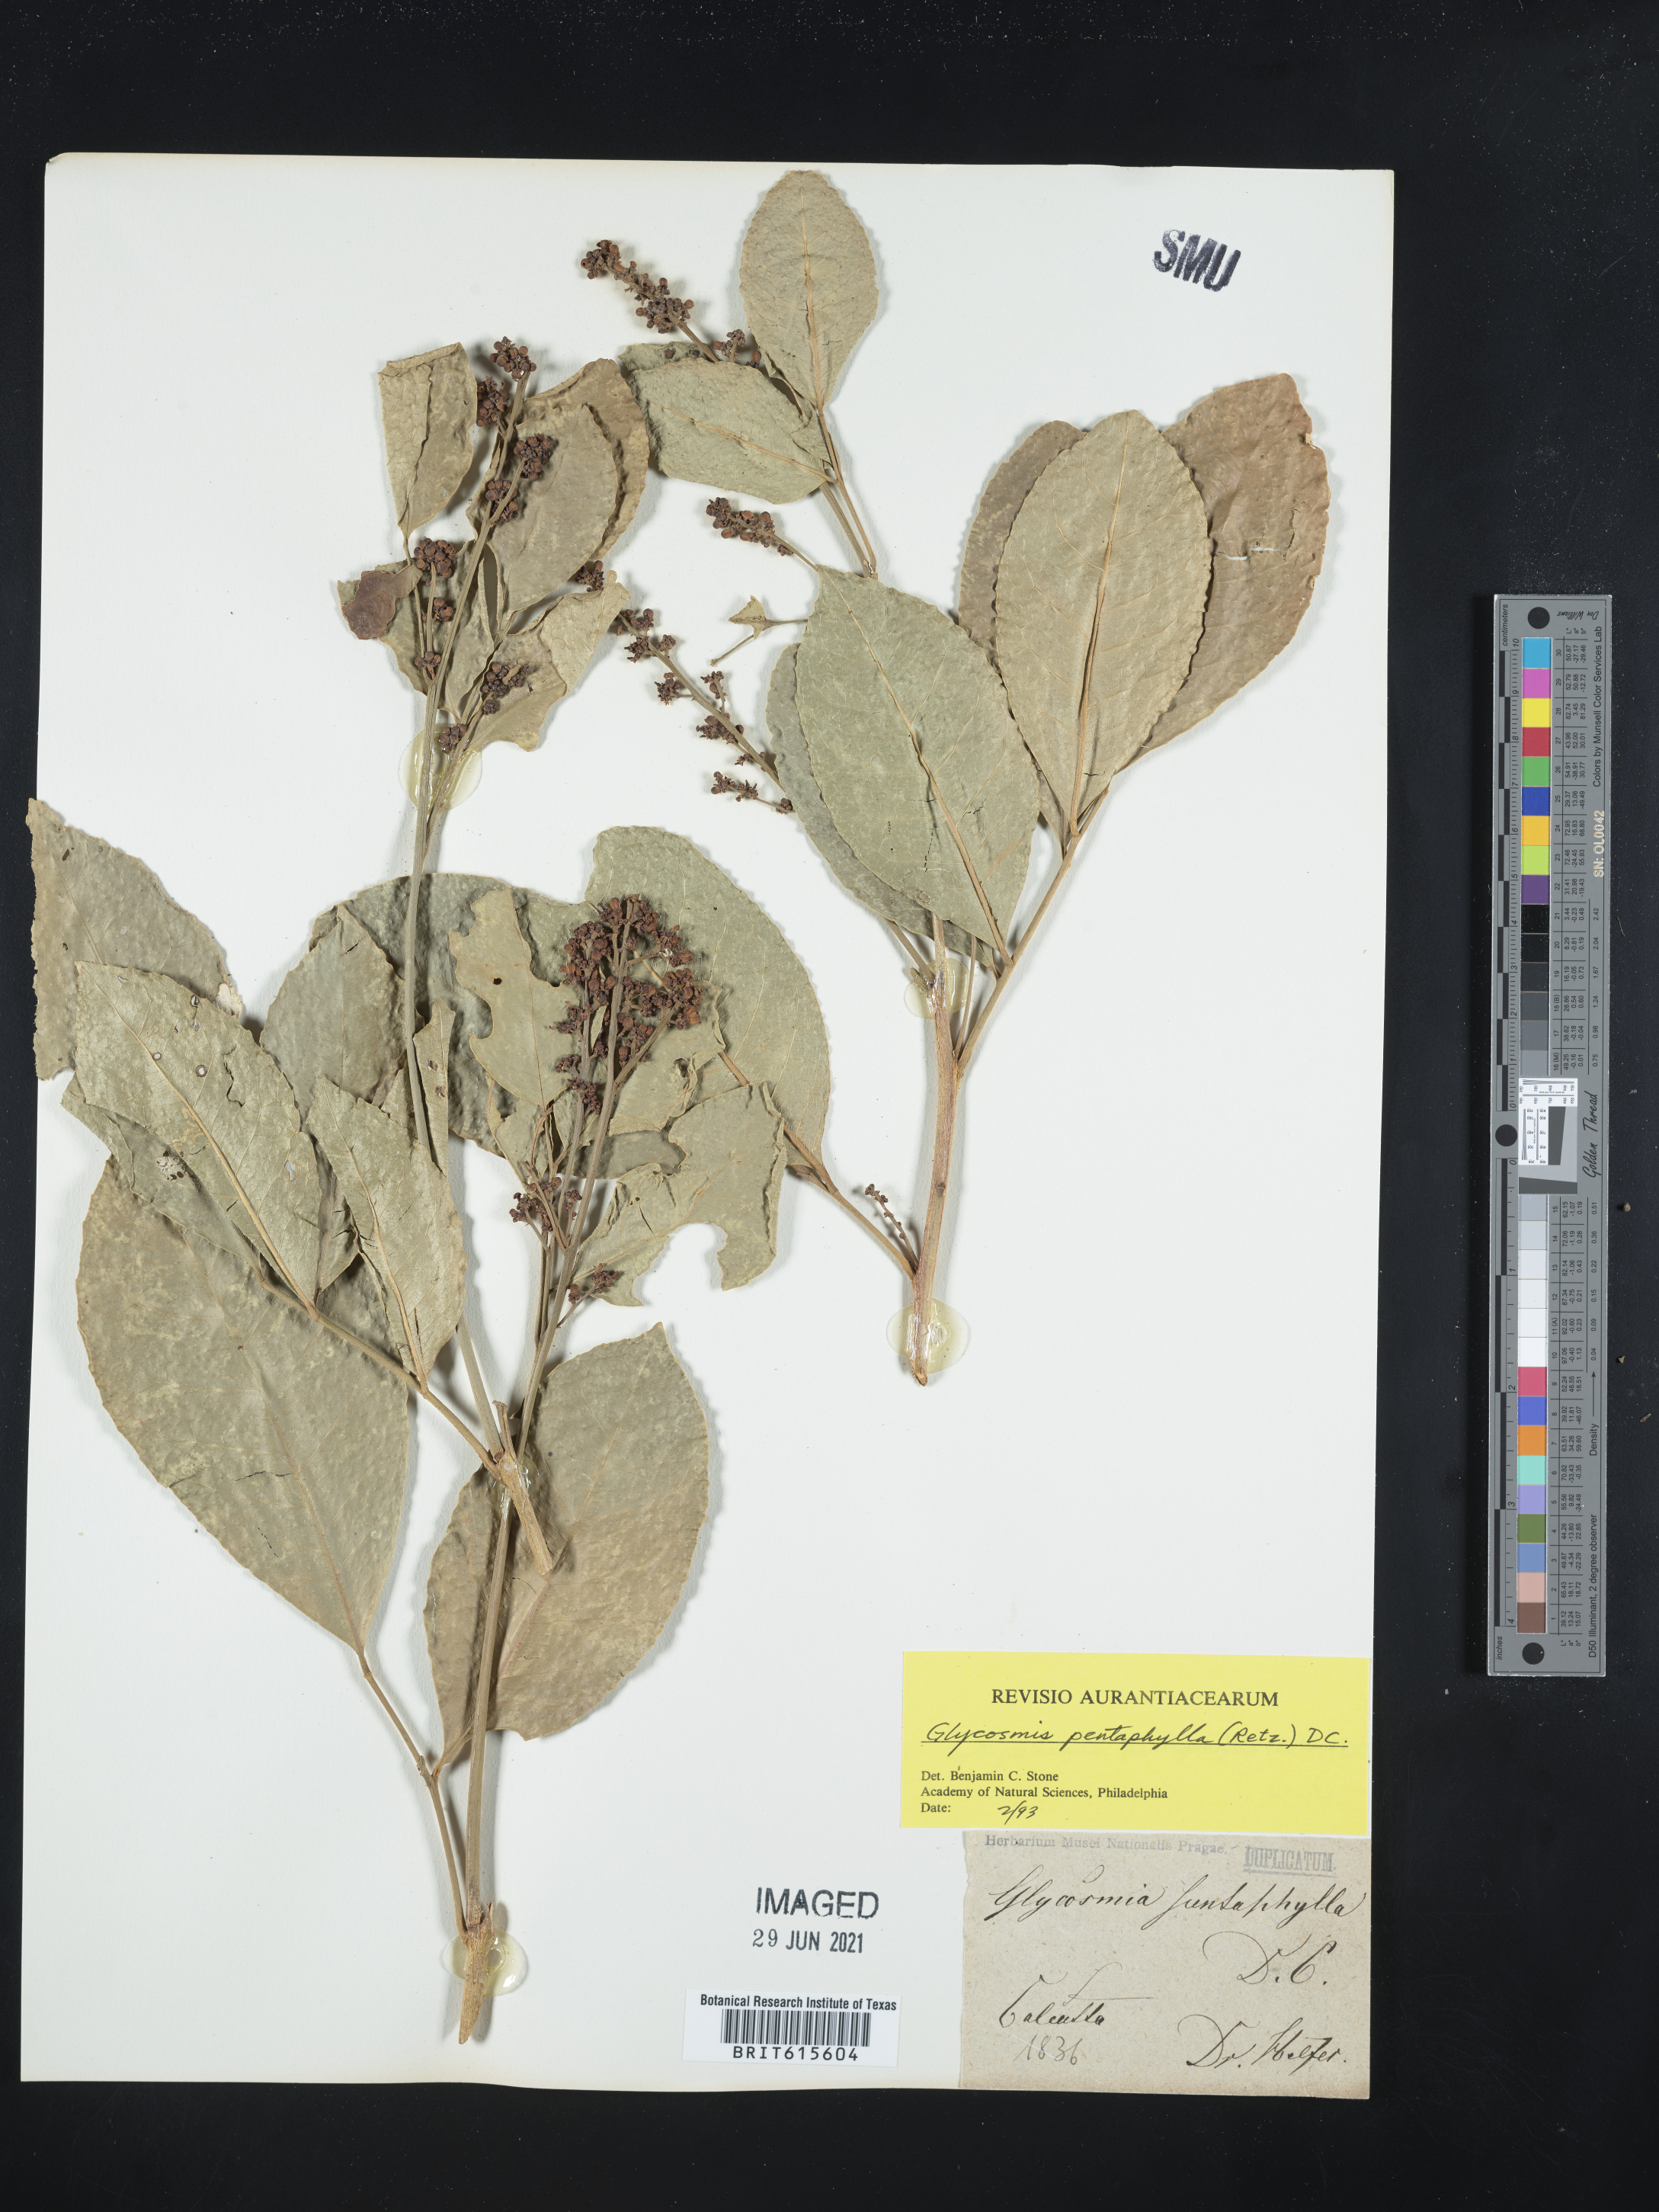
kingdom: Plantae
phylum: Tracheophyta
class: Magnoliopsida
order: Sapindales
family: Rutaceae
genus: Glycosmis
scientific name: Glycosmis pentaphylla
